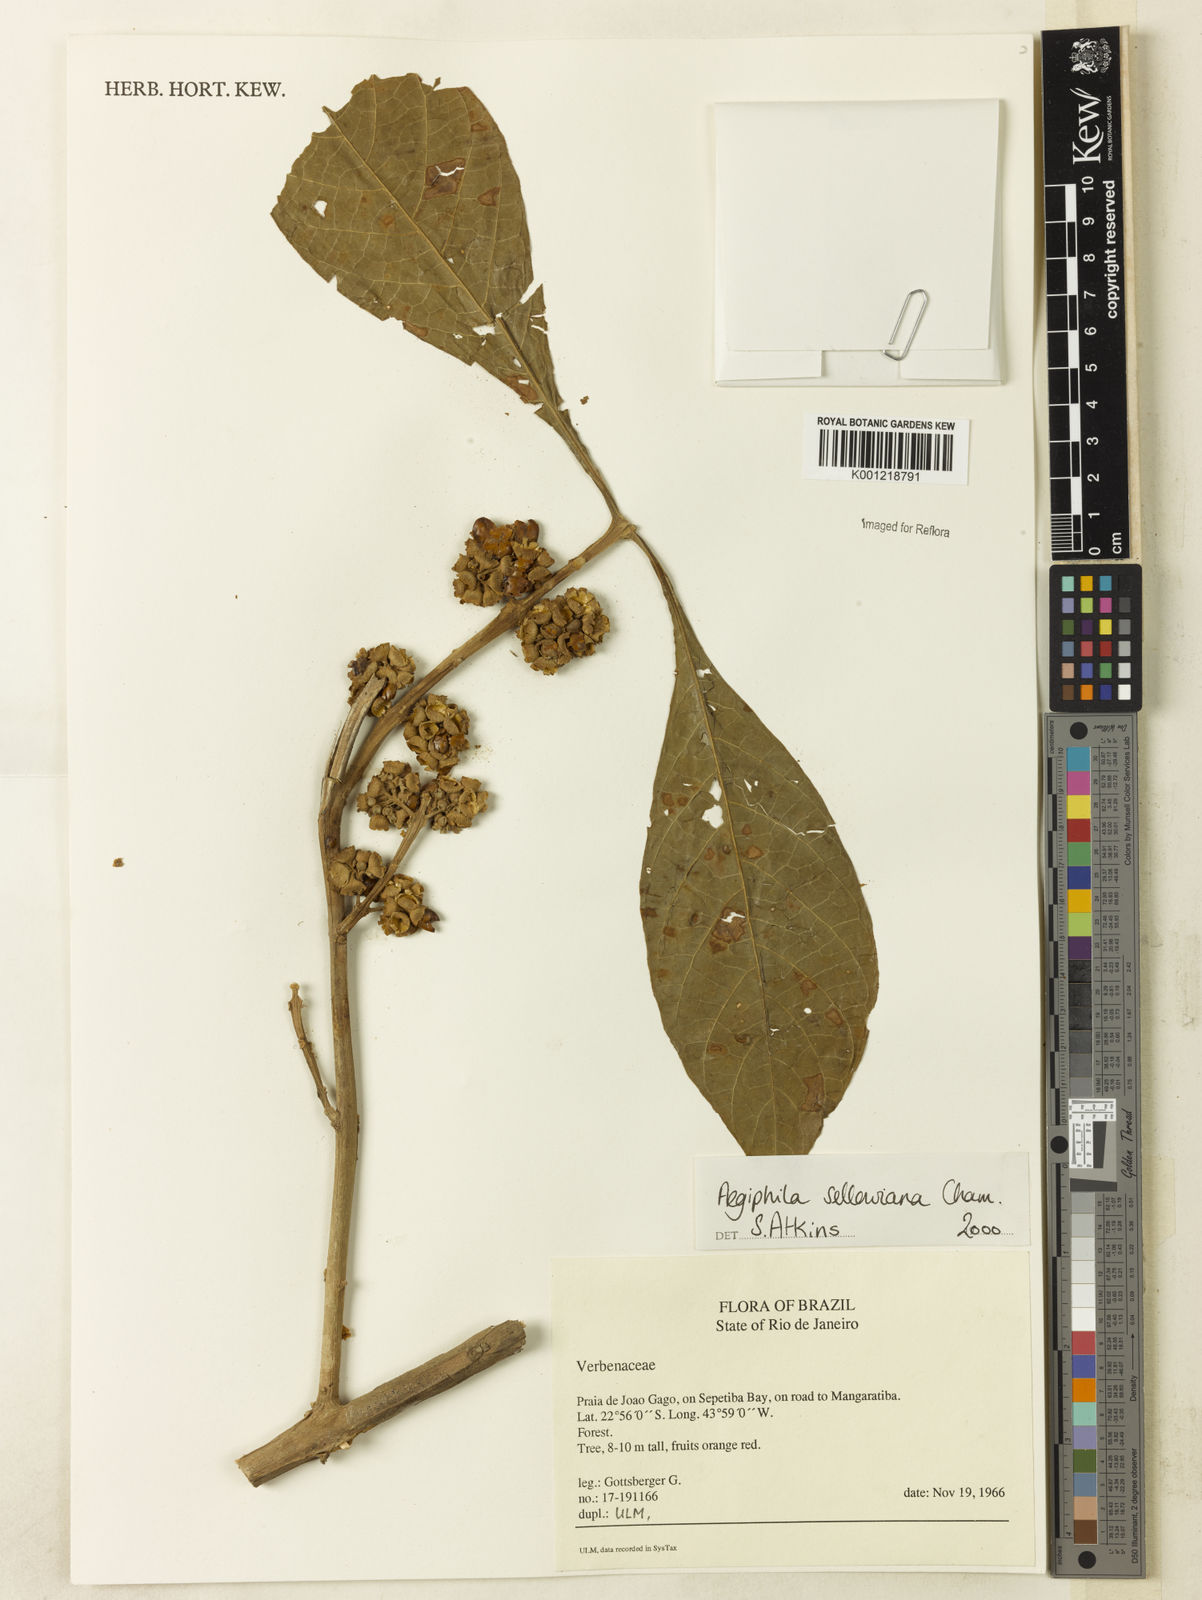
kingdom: Plantae
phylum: Tracheophyta
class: Magnoliopsida
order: Lamiales
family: Lamiaceae
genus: Aegiphila
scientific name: Aegiphila verticillata
